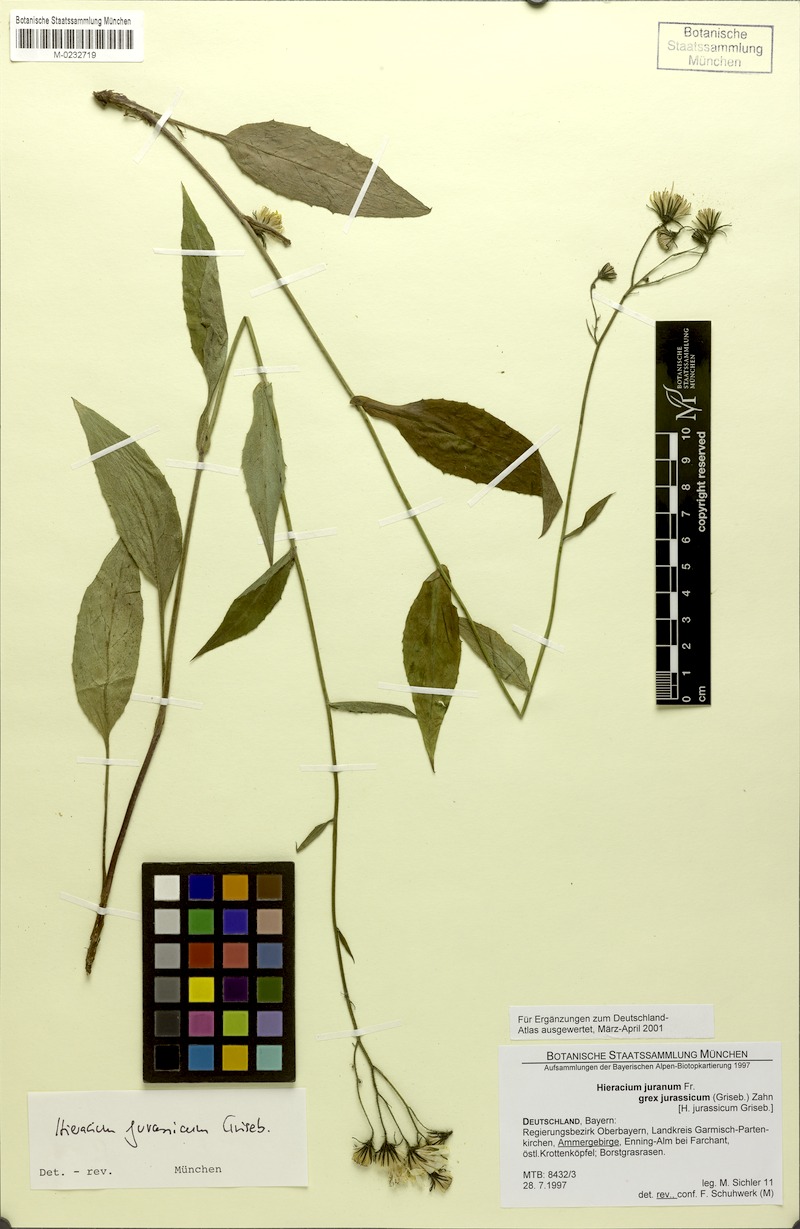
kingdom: Plantae
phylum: Tracheophyta
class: Magnoliopsida
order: Asterales
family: Asteraceae
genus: Hieracium
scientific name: Hieracium jurassicum
